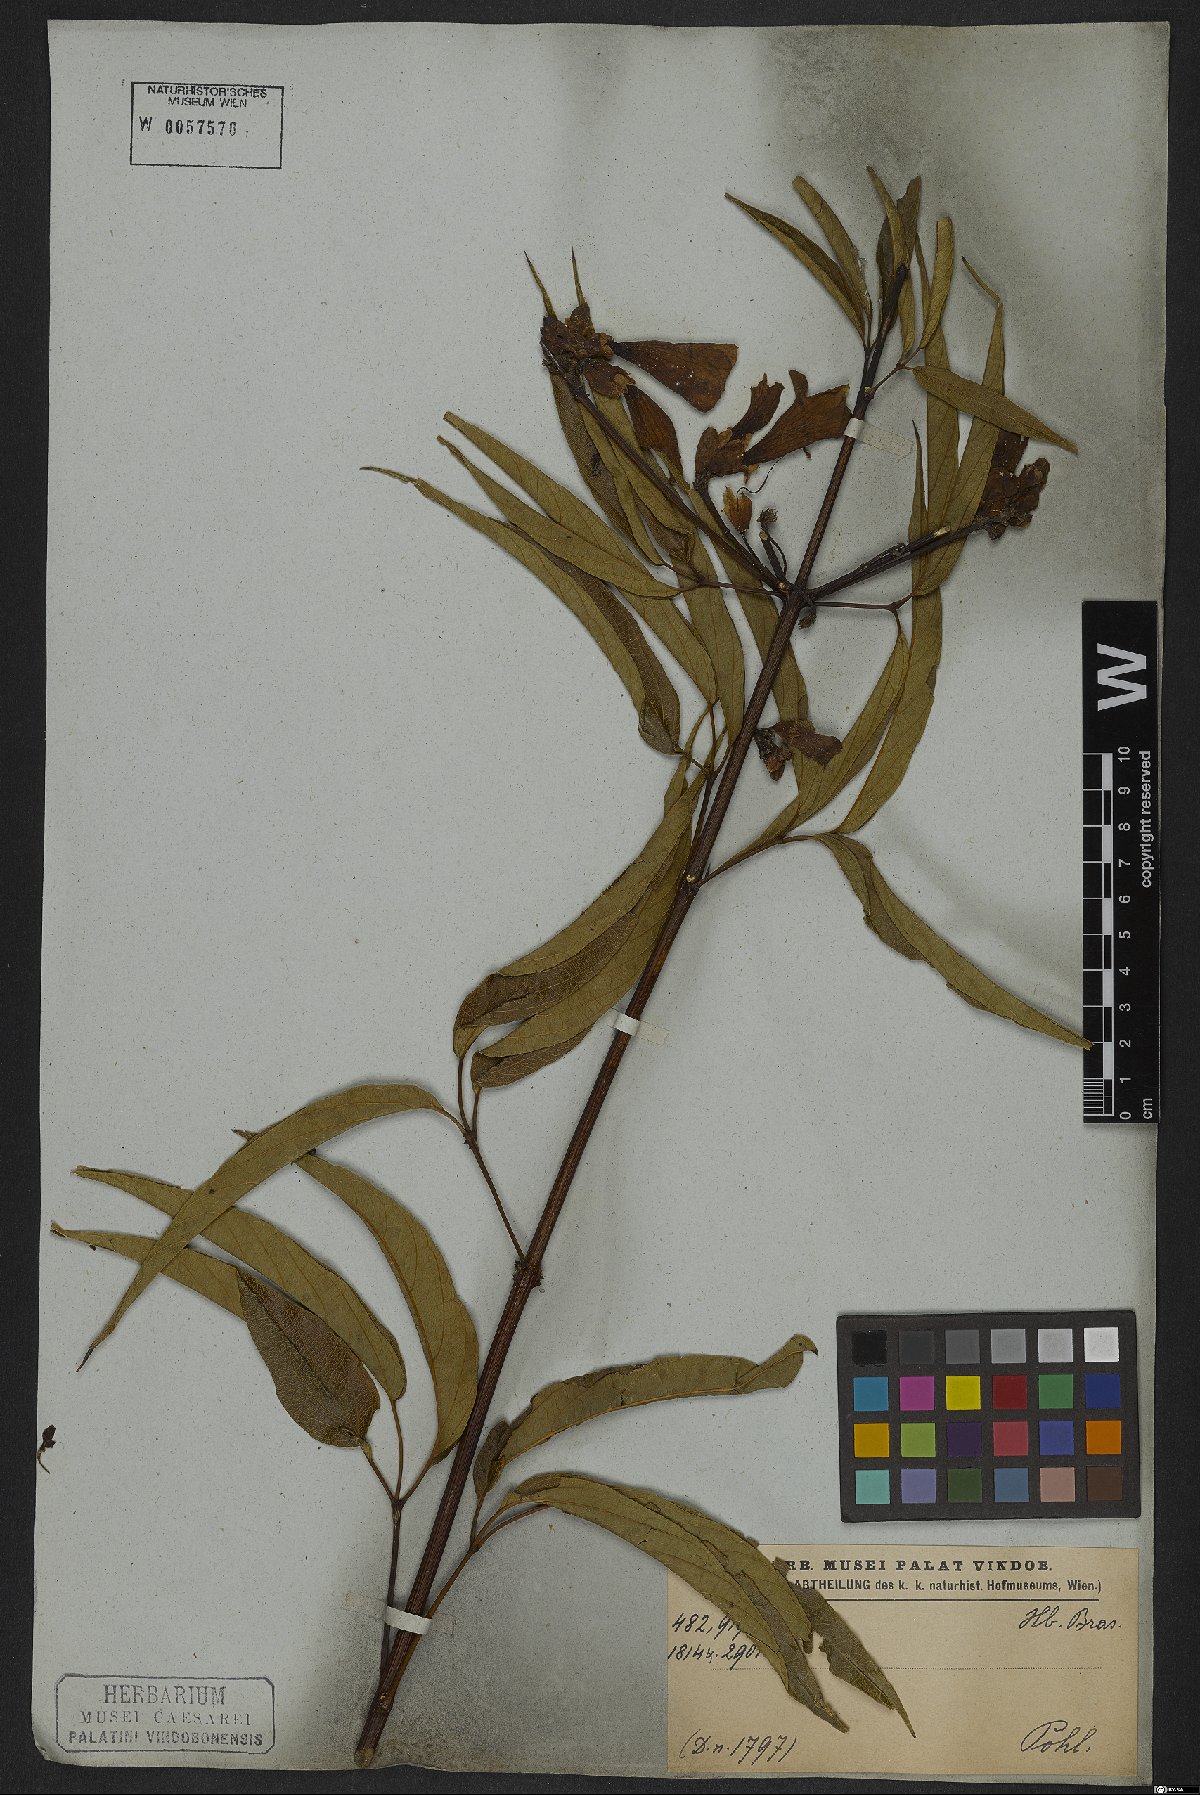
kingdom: Plantae
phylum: Tracheophyta
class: Magnoliopsida
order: Lamiales
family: Bignoniaceae
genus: Cuspidaria
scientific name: Cuspidaria sceptrum
